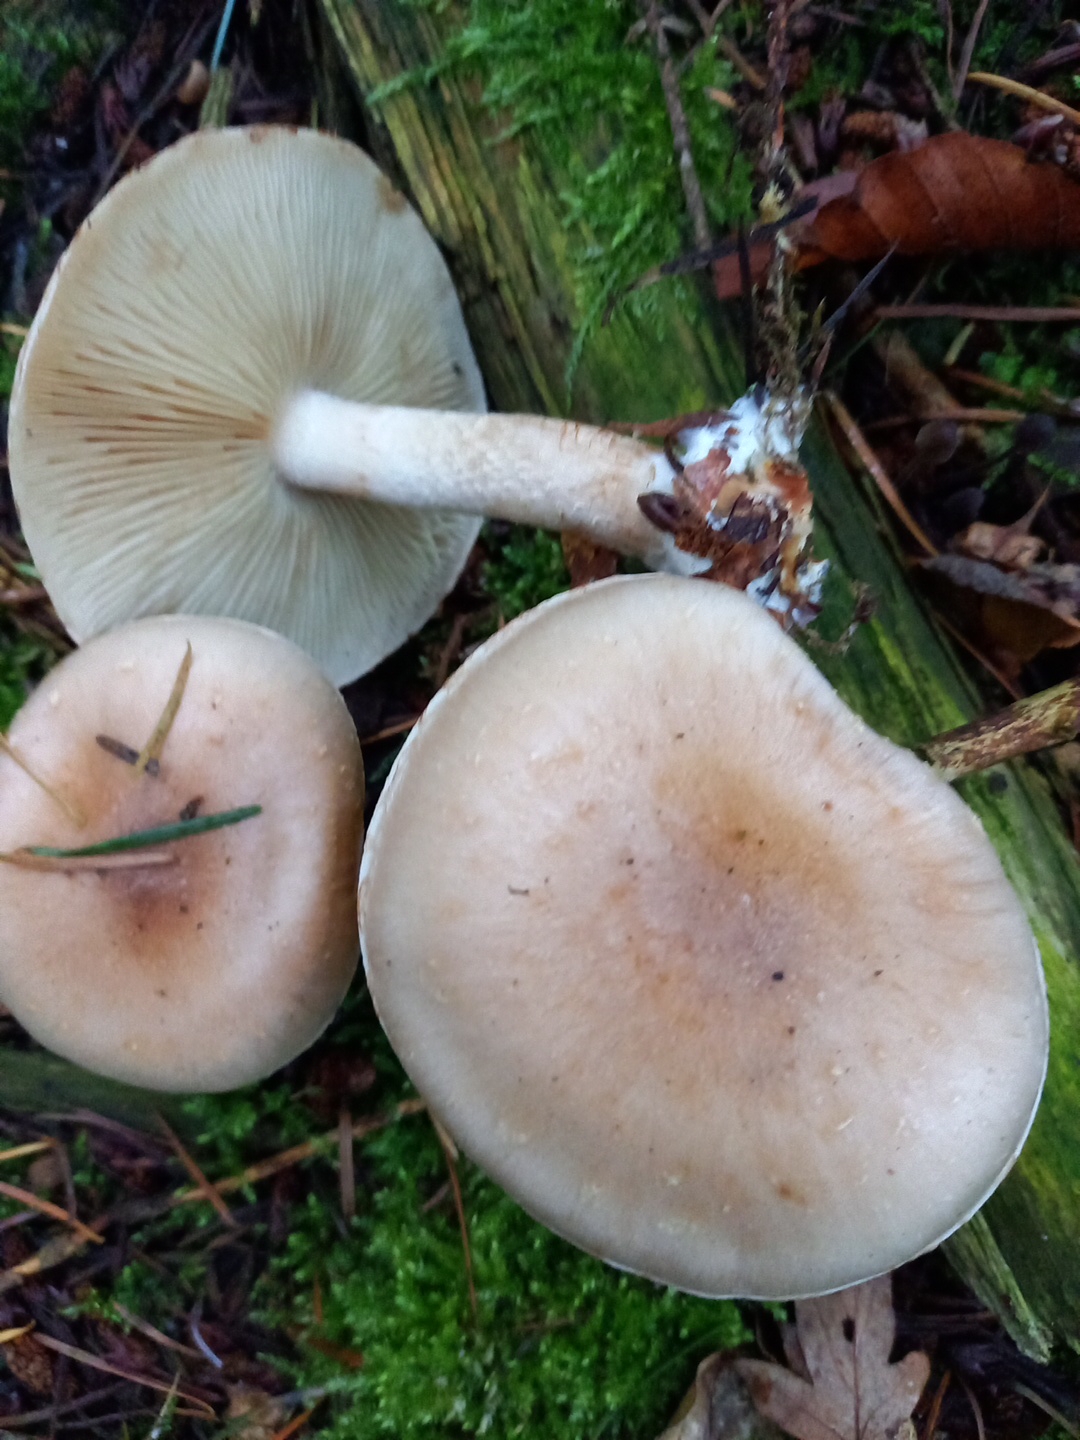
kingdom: Fungi
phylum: Basidiomycota
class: Agaricomycetes
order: Agaricales
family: Strophariaceae
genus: Pholiota
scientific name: Pholiota lenta
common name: løv-skælhat
